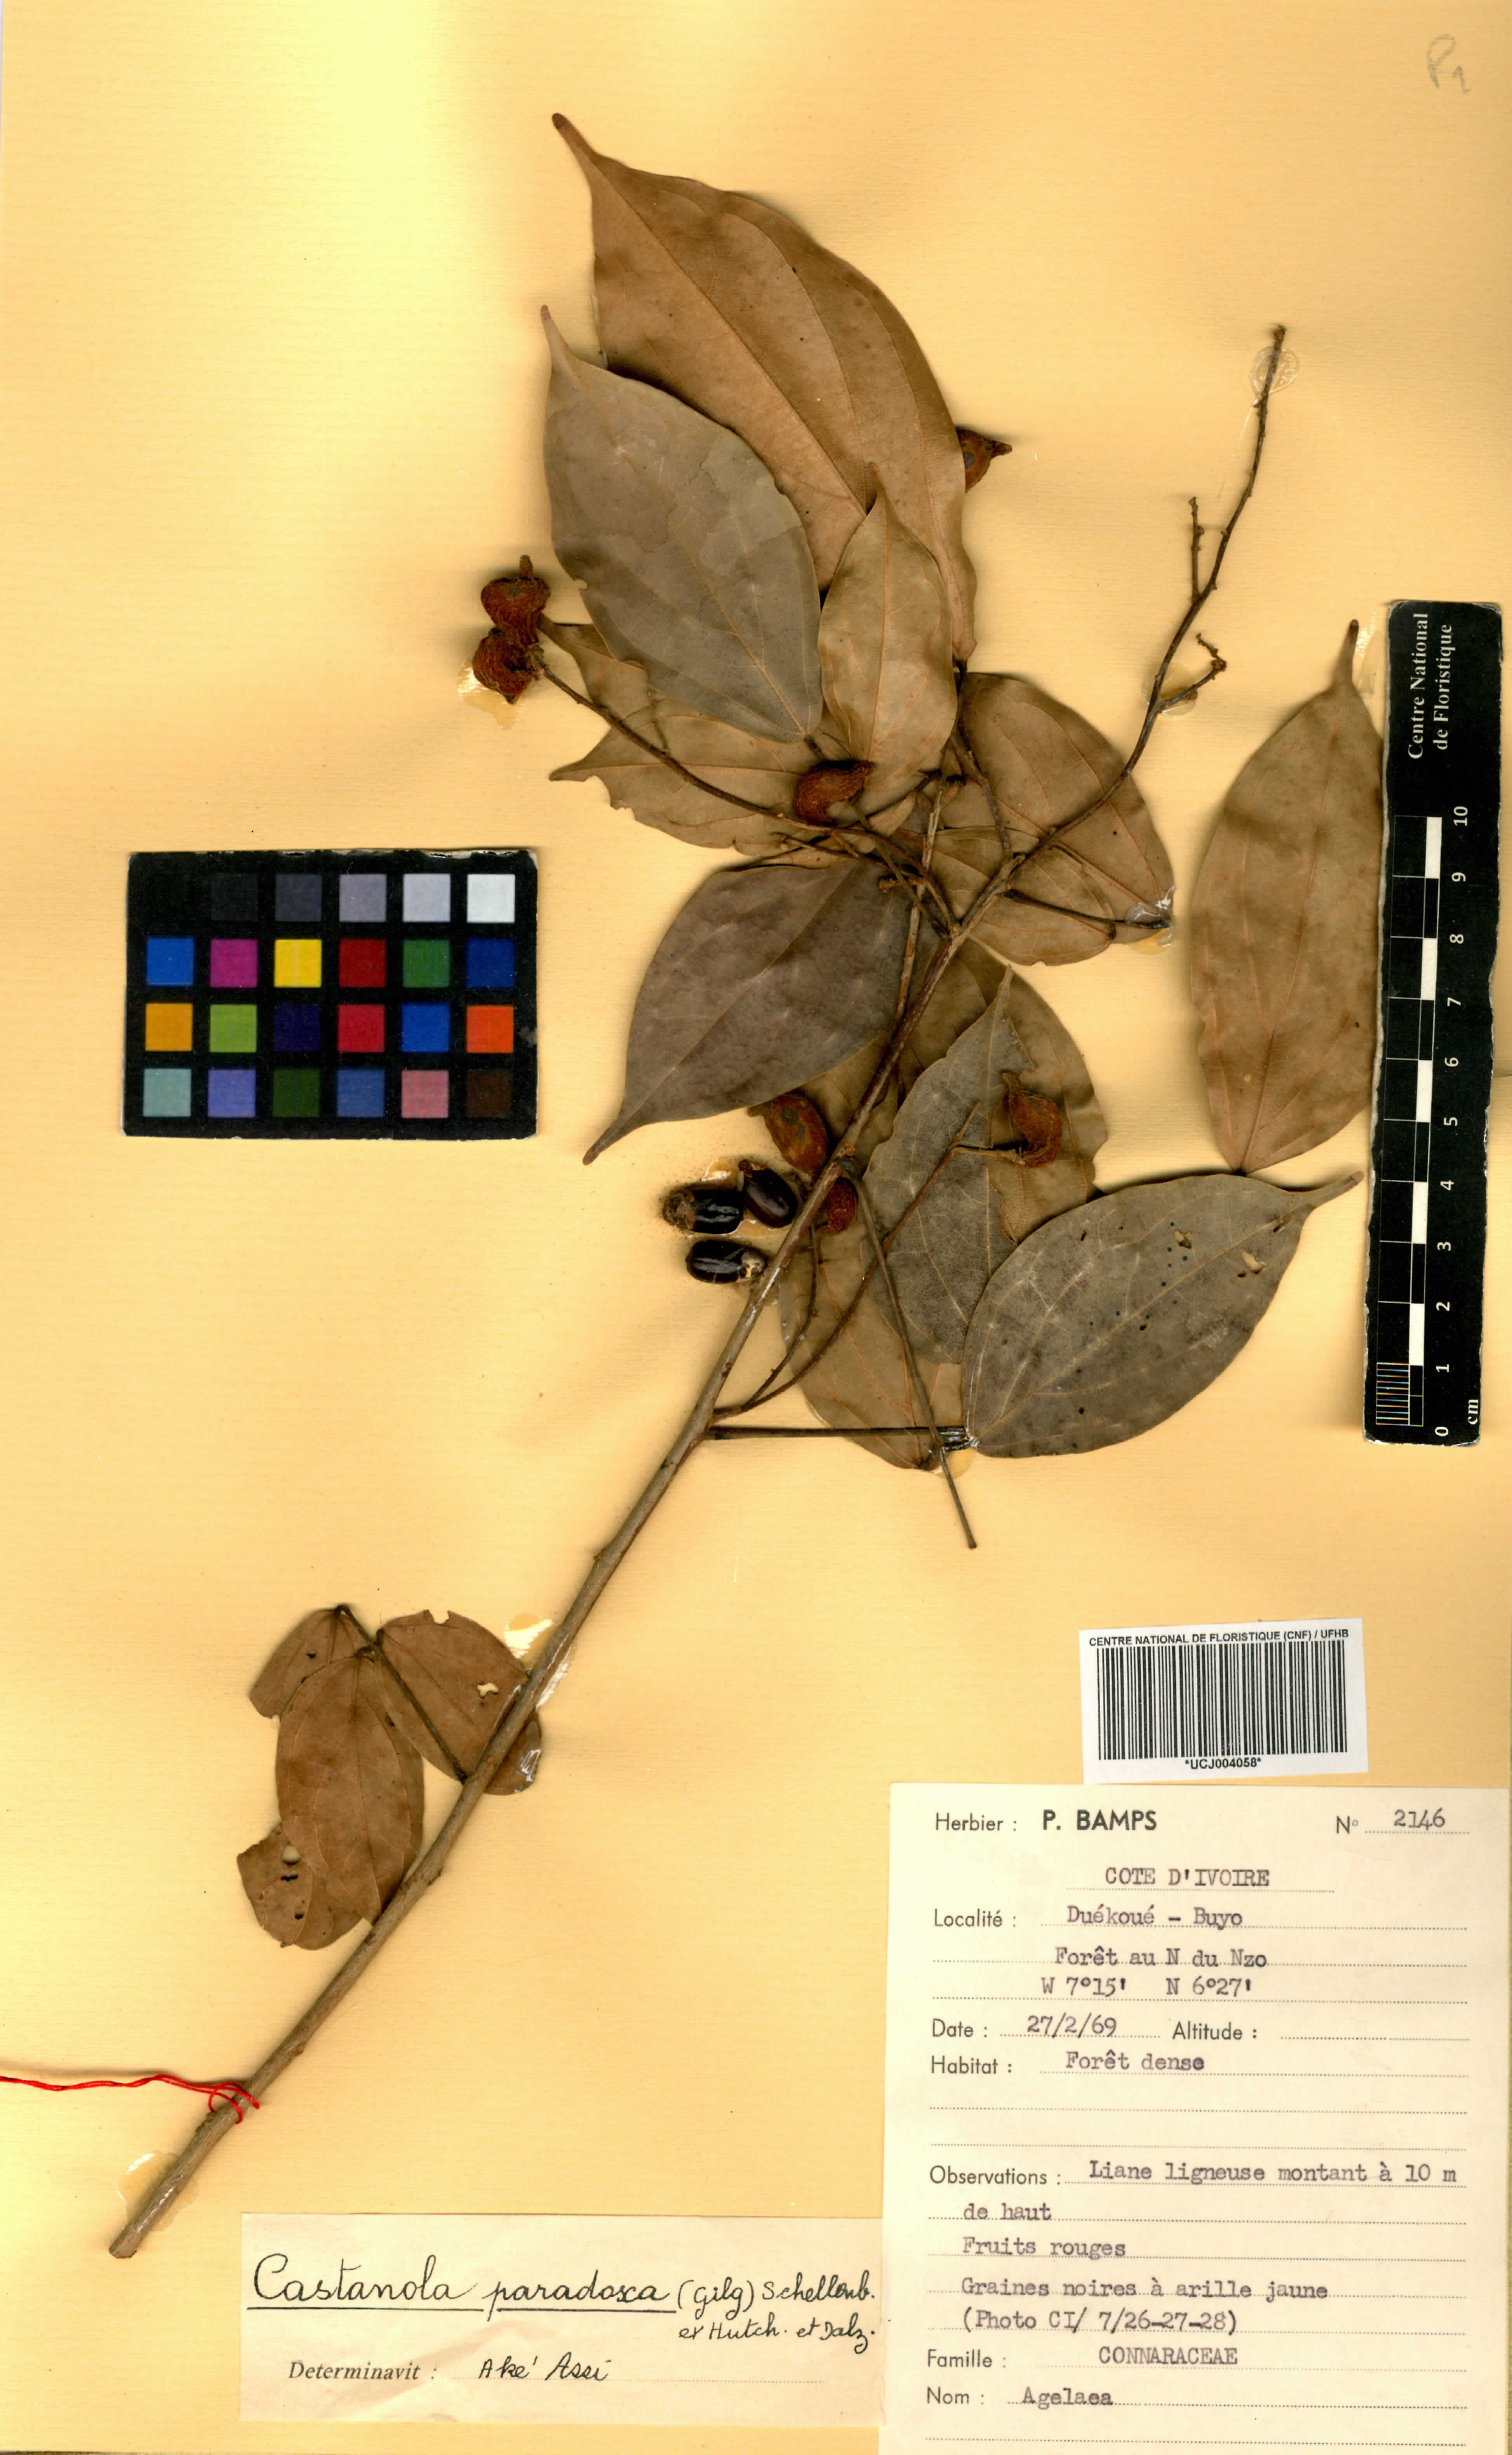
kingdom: Plantae
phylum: Tracheophyta
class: Magnoliopsida
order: Oxalidales
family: Connaraceae
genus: Castanola
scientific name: Castanola paradoxa
